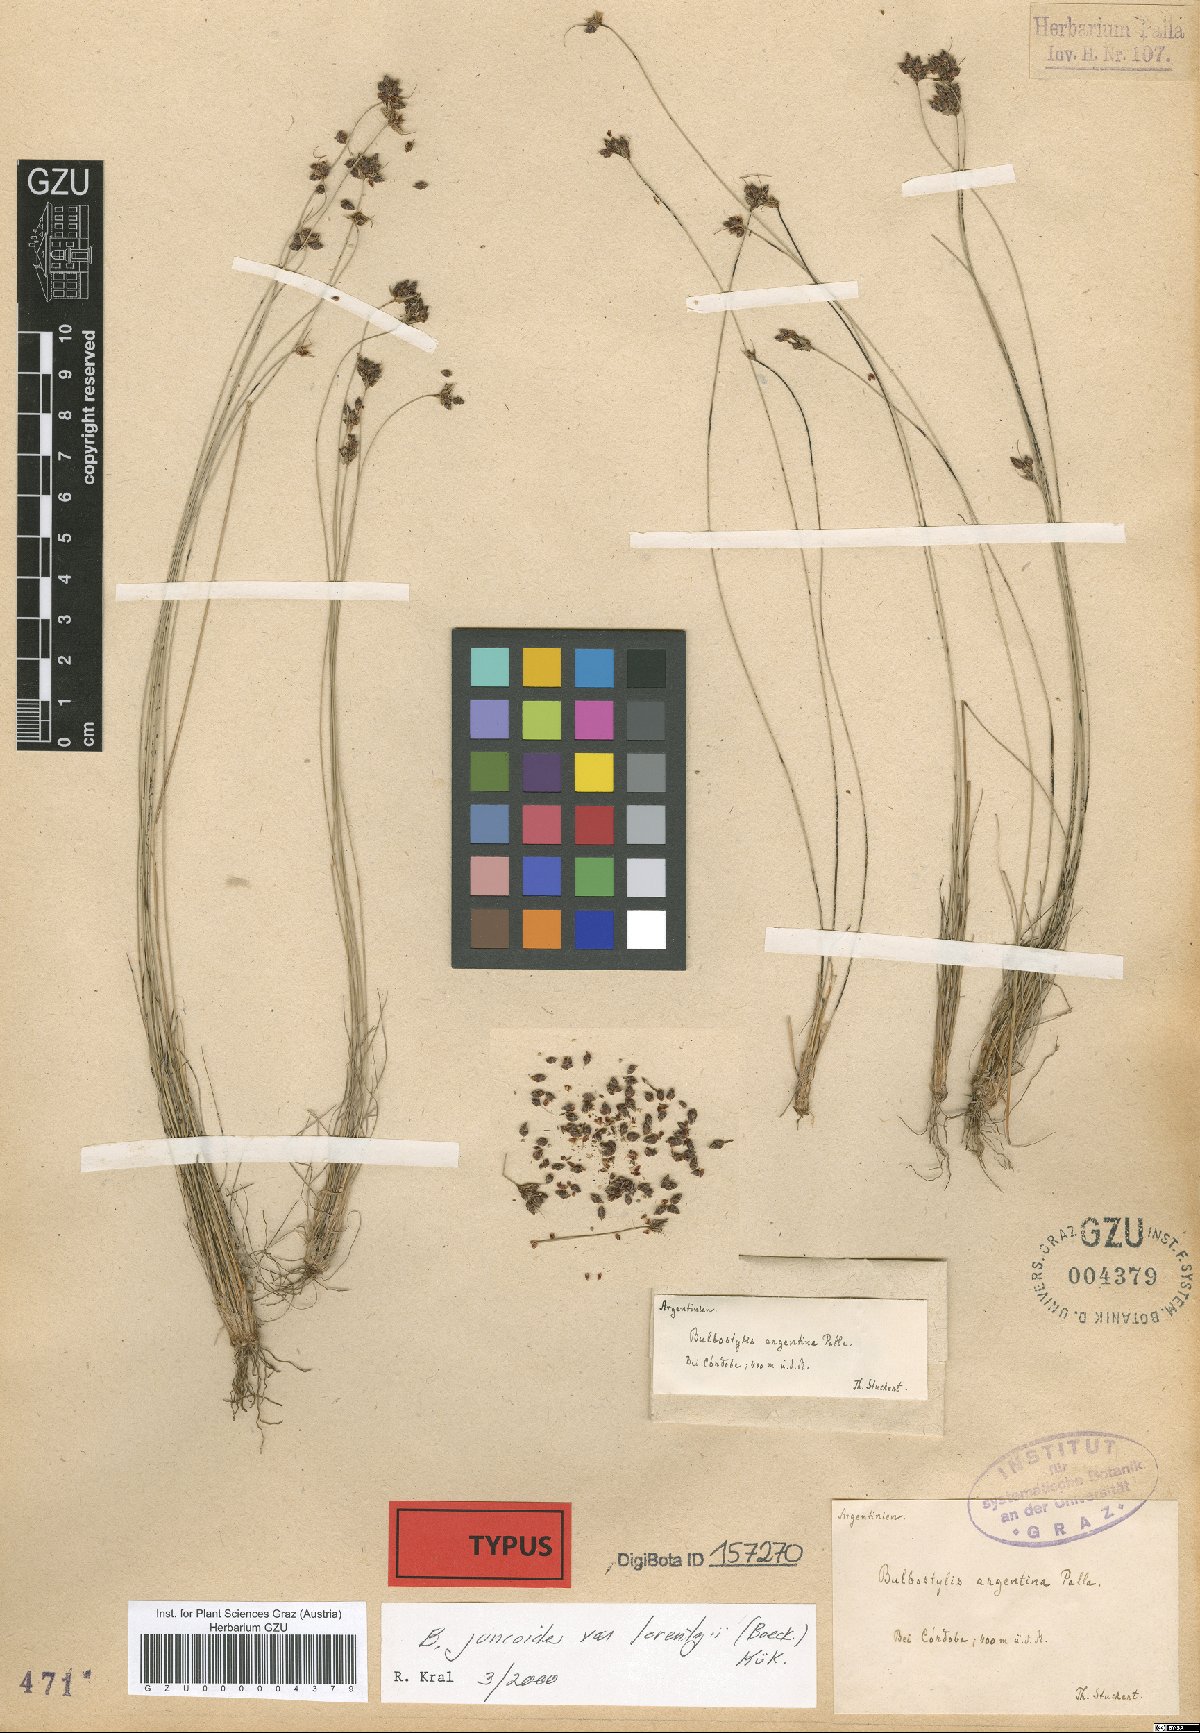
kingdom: Plantae
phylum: Tracheophyta
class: Liliopsida
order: Poales
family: Cyperaceae
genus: Bulbostylis
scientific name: Bulbostylis juncoides
